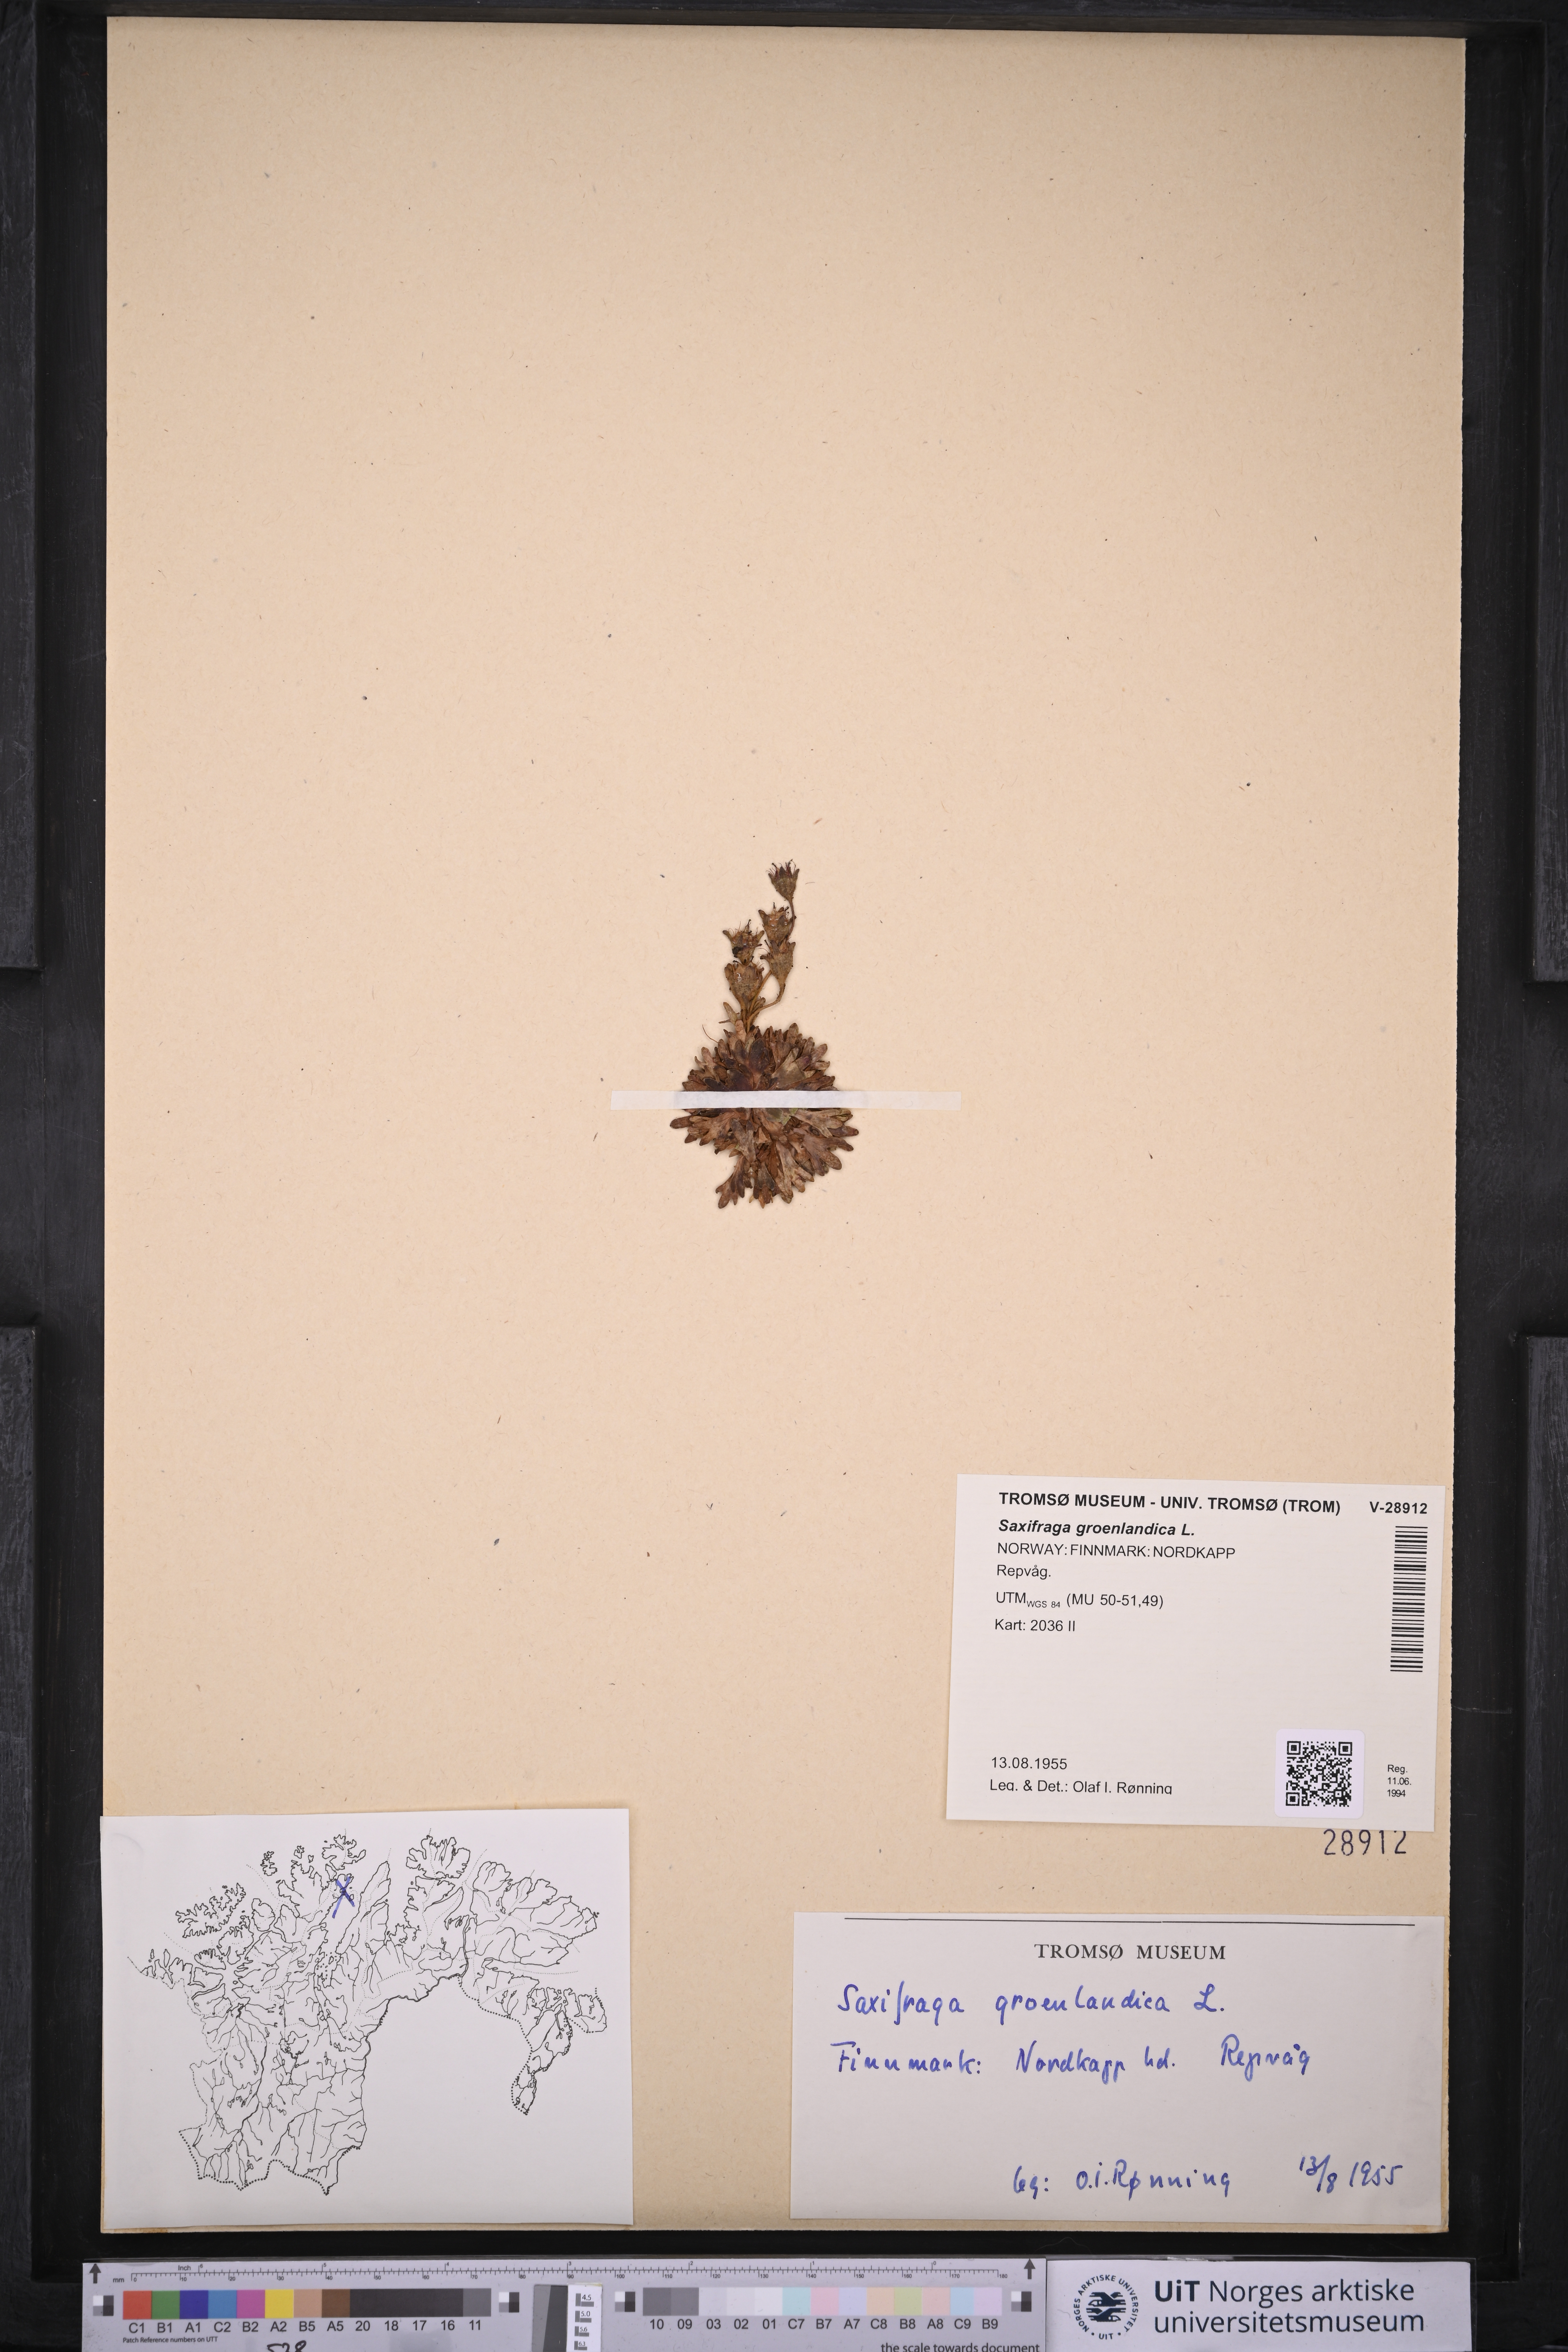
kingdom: Plantae
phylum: Tracheophyta
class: Magnoliopsida
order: Saxifragales
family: Saxifragaceae
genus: Saxifraga
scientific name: Saxifraga cespitosa
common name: Tufted saxifrage
